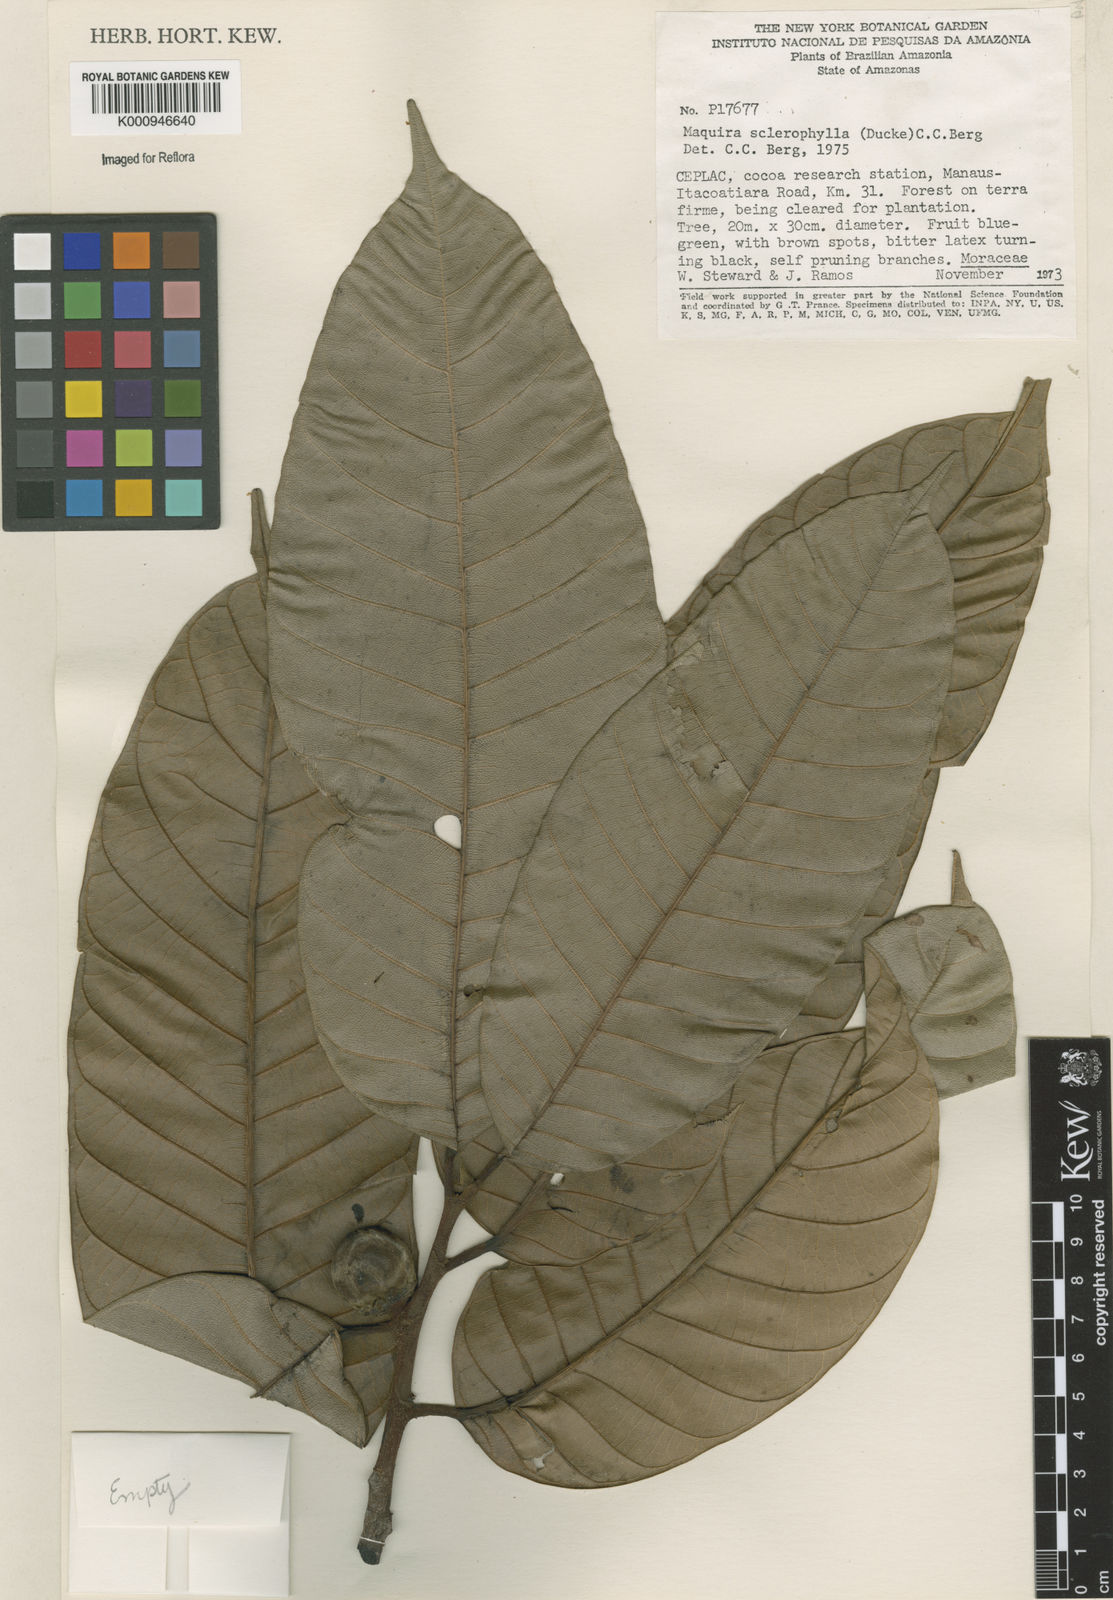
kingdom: Plantae
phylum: Tracheophyta
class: Magnoliopsida
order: Rosales
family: Moraceae
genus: Maquira
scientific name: Maquira sclerophylla
